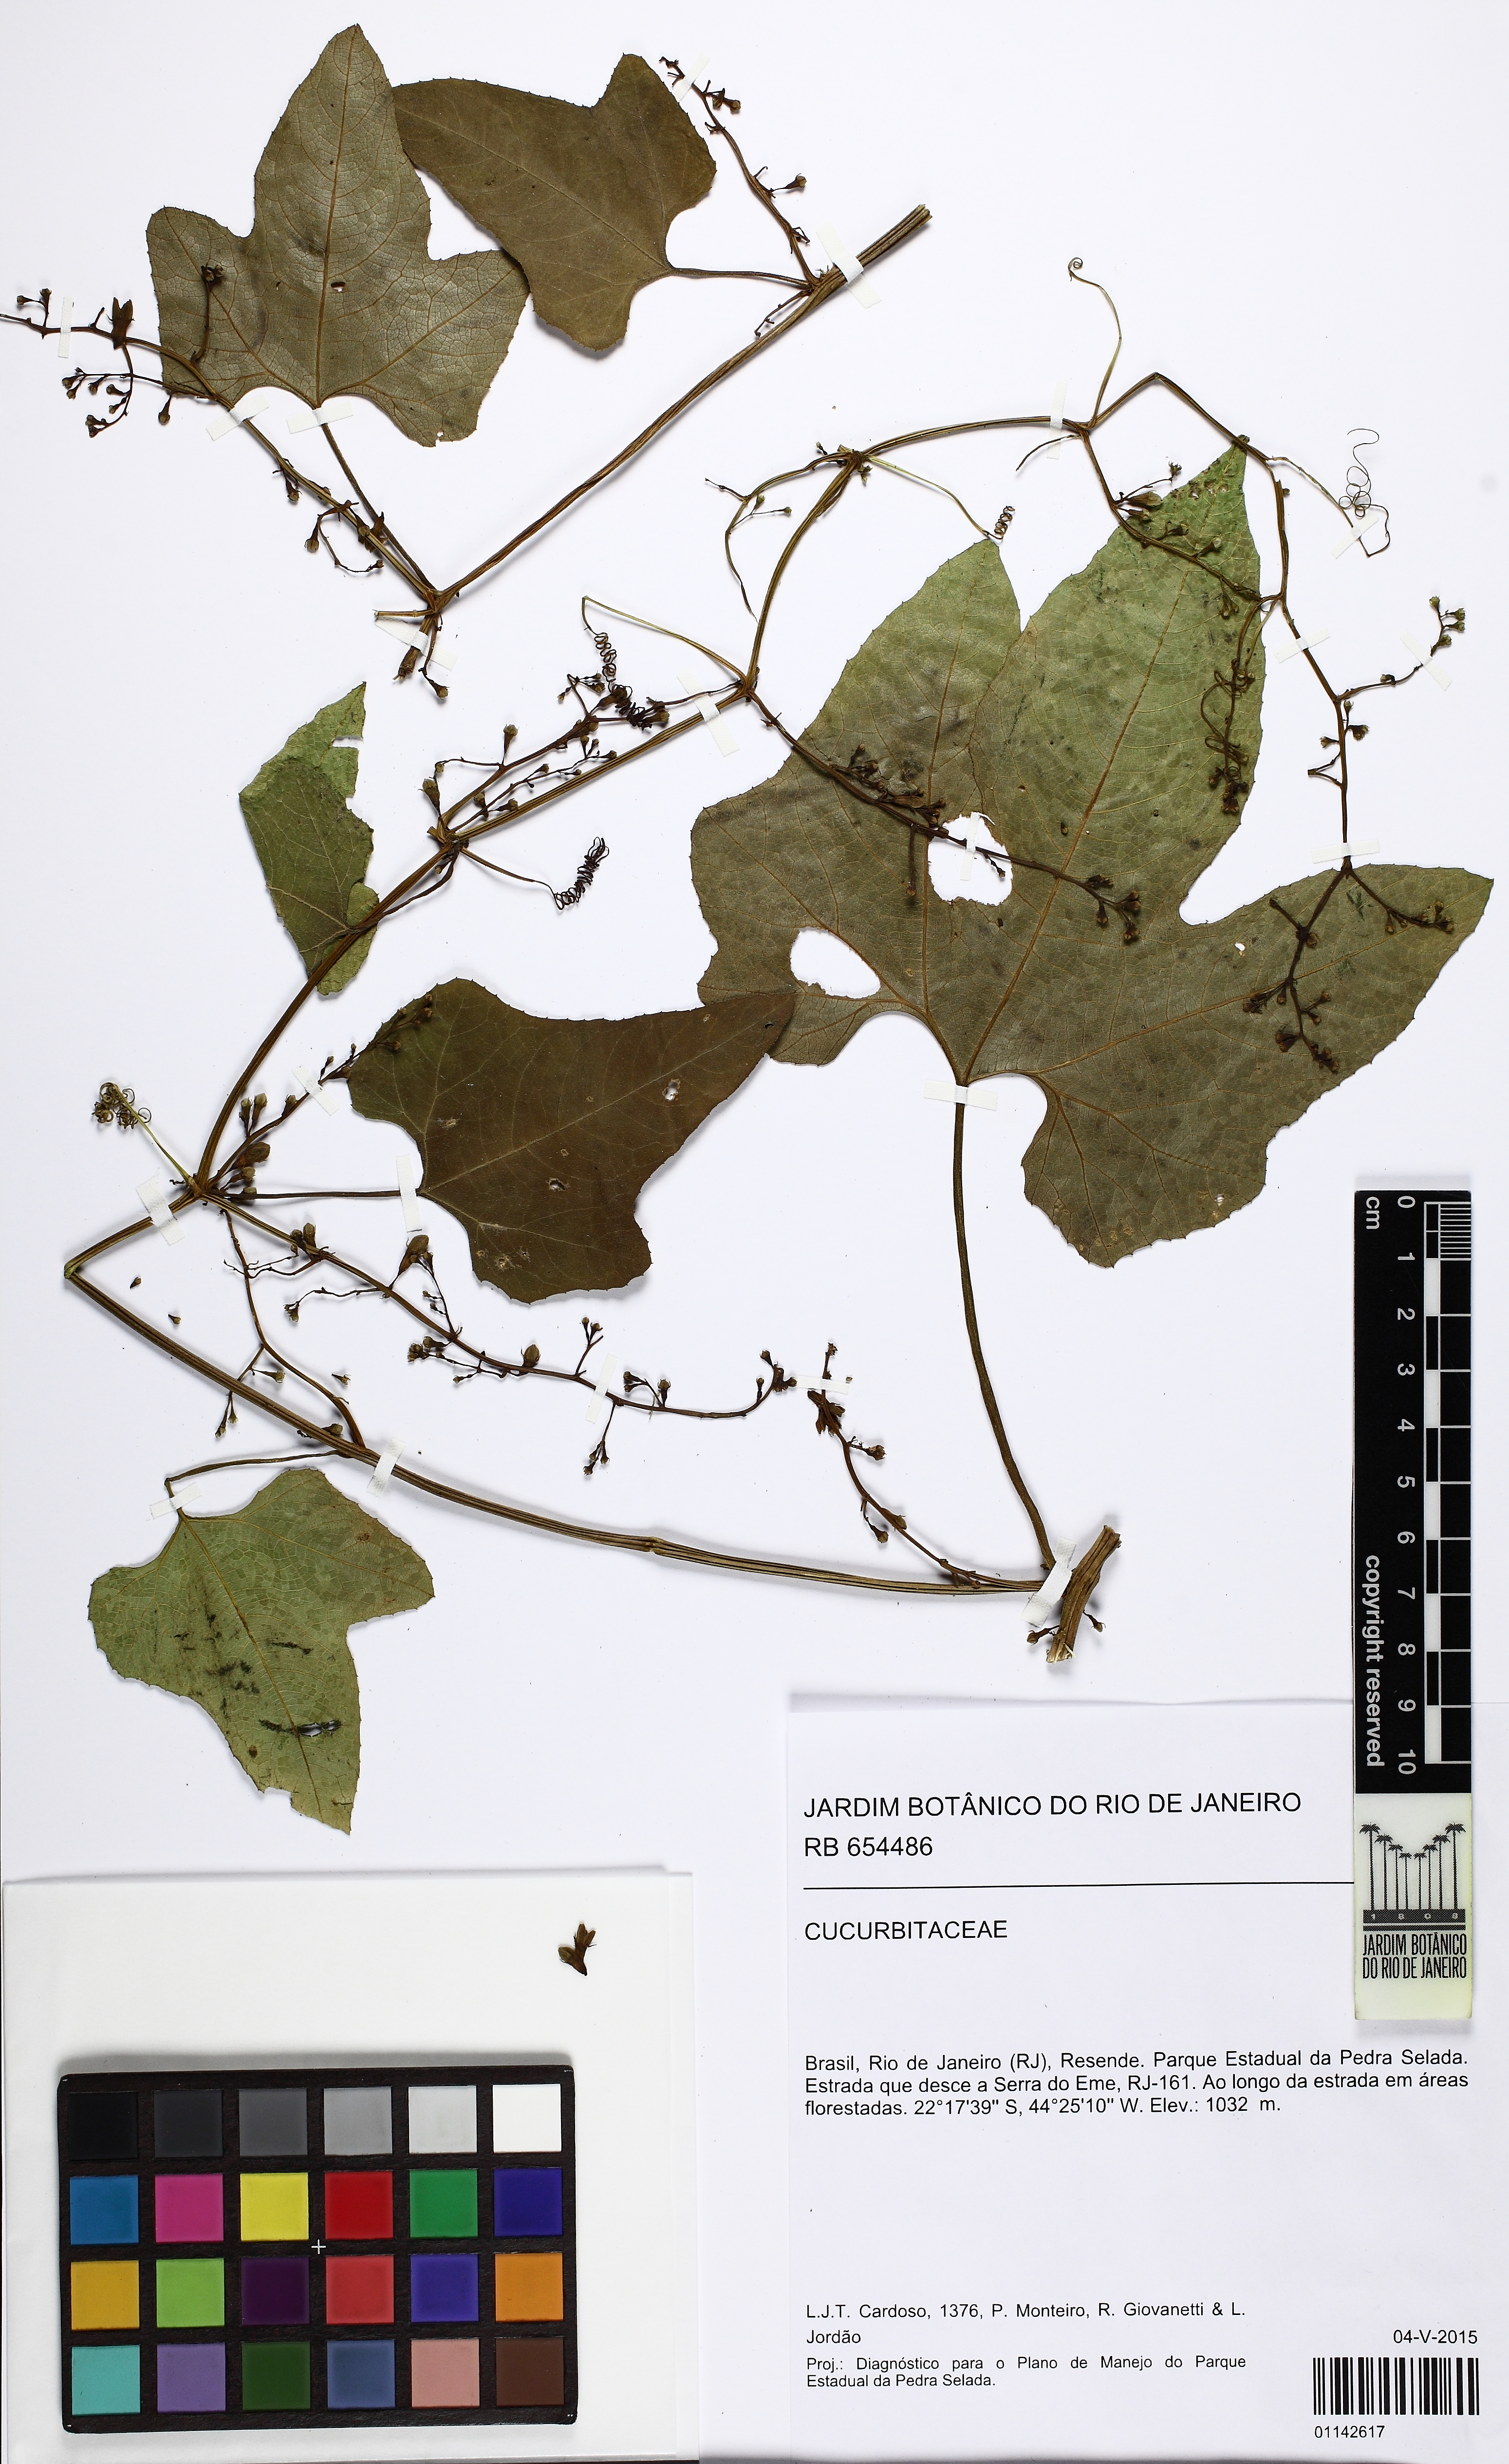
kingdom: Plantae
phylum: Tracheophyta
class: Magnoliopsida
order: Cucurbitales
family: Cucurbitaceae
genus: Cayaponia
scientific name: Cayaponia martiana
